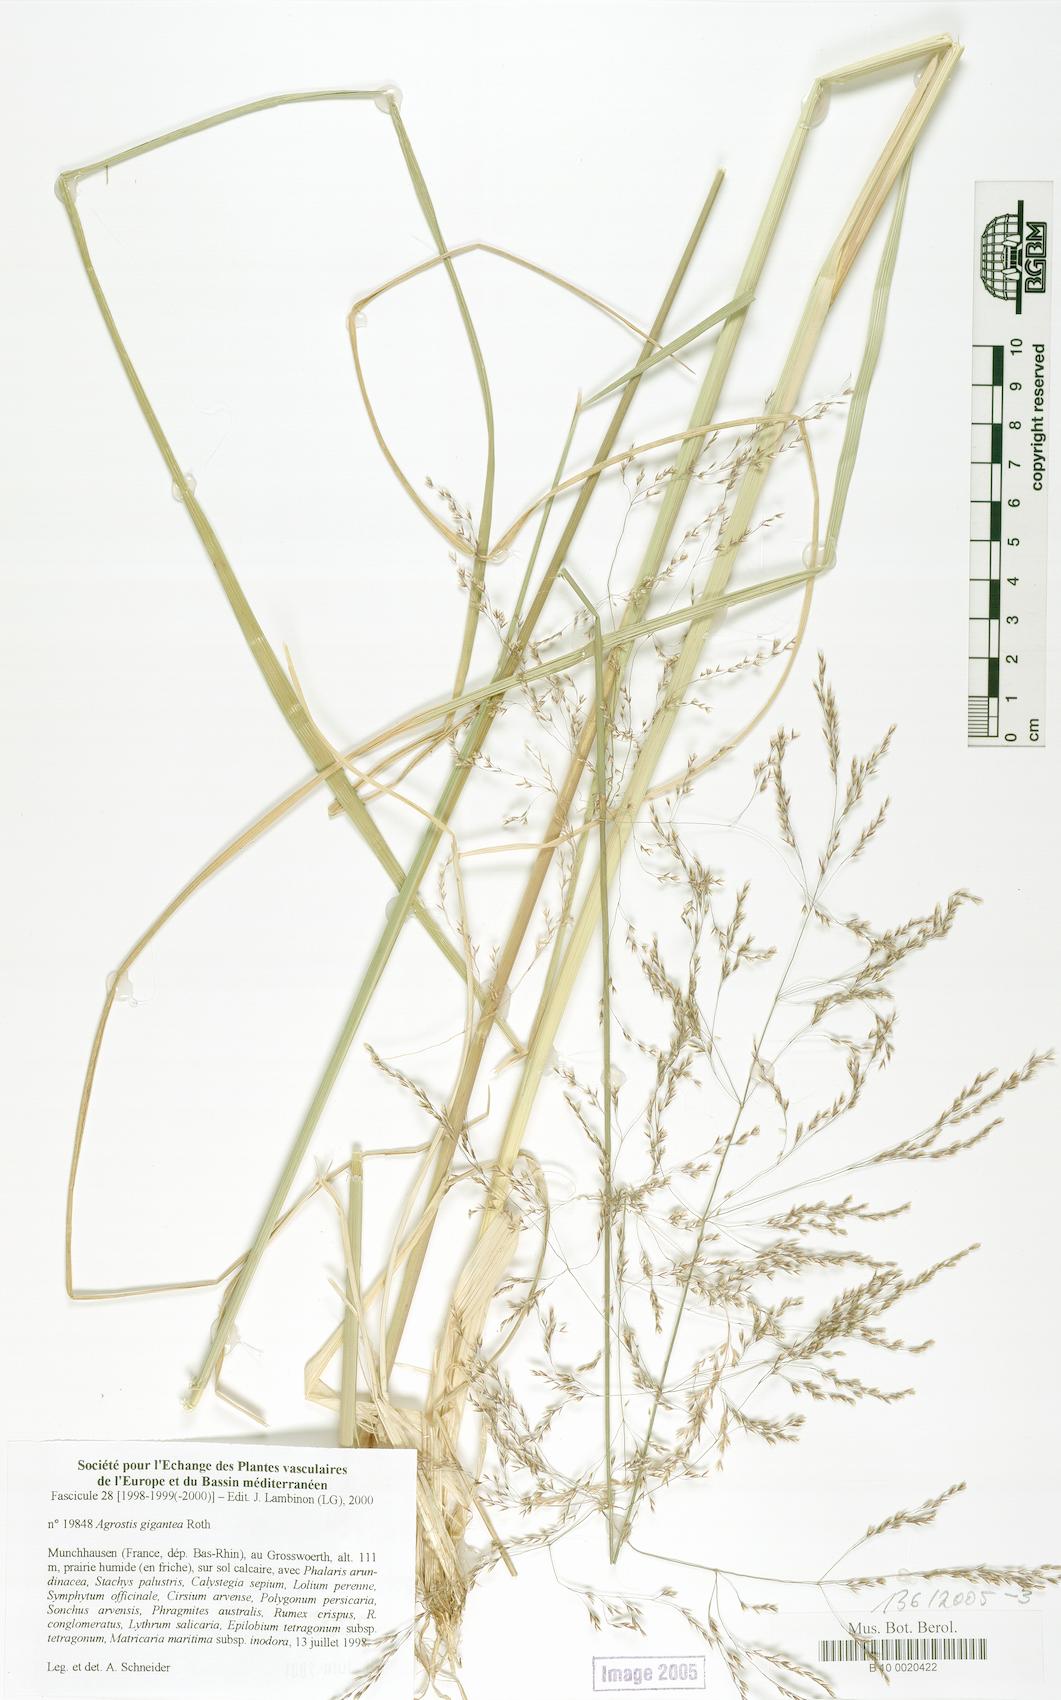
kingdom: Plantae
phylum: Tracheophyta
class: Liliopsida
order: Poales
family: Poaceae
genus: Agrostis
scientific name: Agrostis gigantea
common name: Black bent
